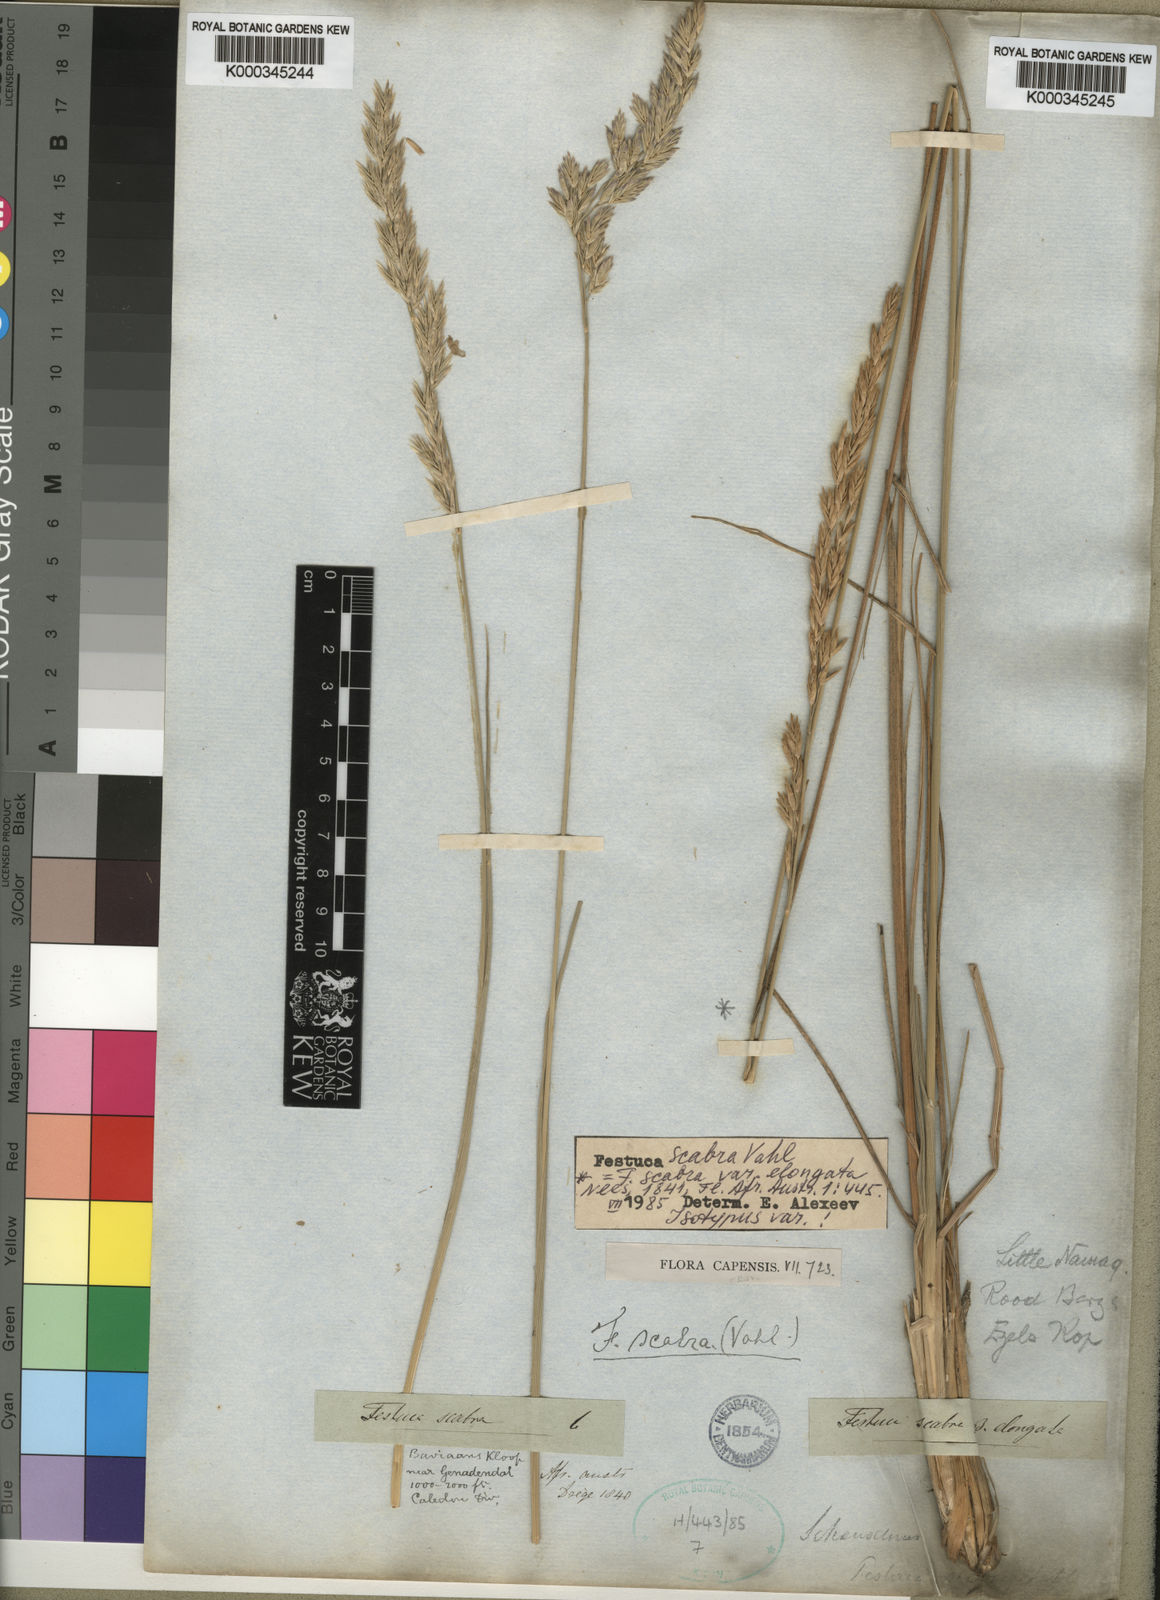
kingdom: Plantae
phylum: Tracheophyta
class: Liliopsida
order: Poales
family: Poaceae
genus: Festuca
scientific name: Festuca scabra
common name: Munnik fescue
